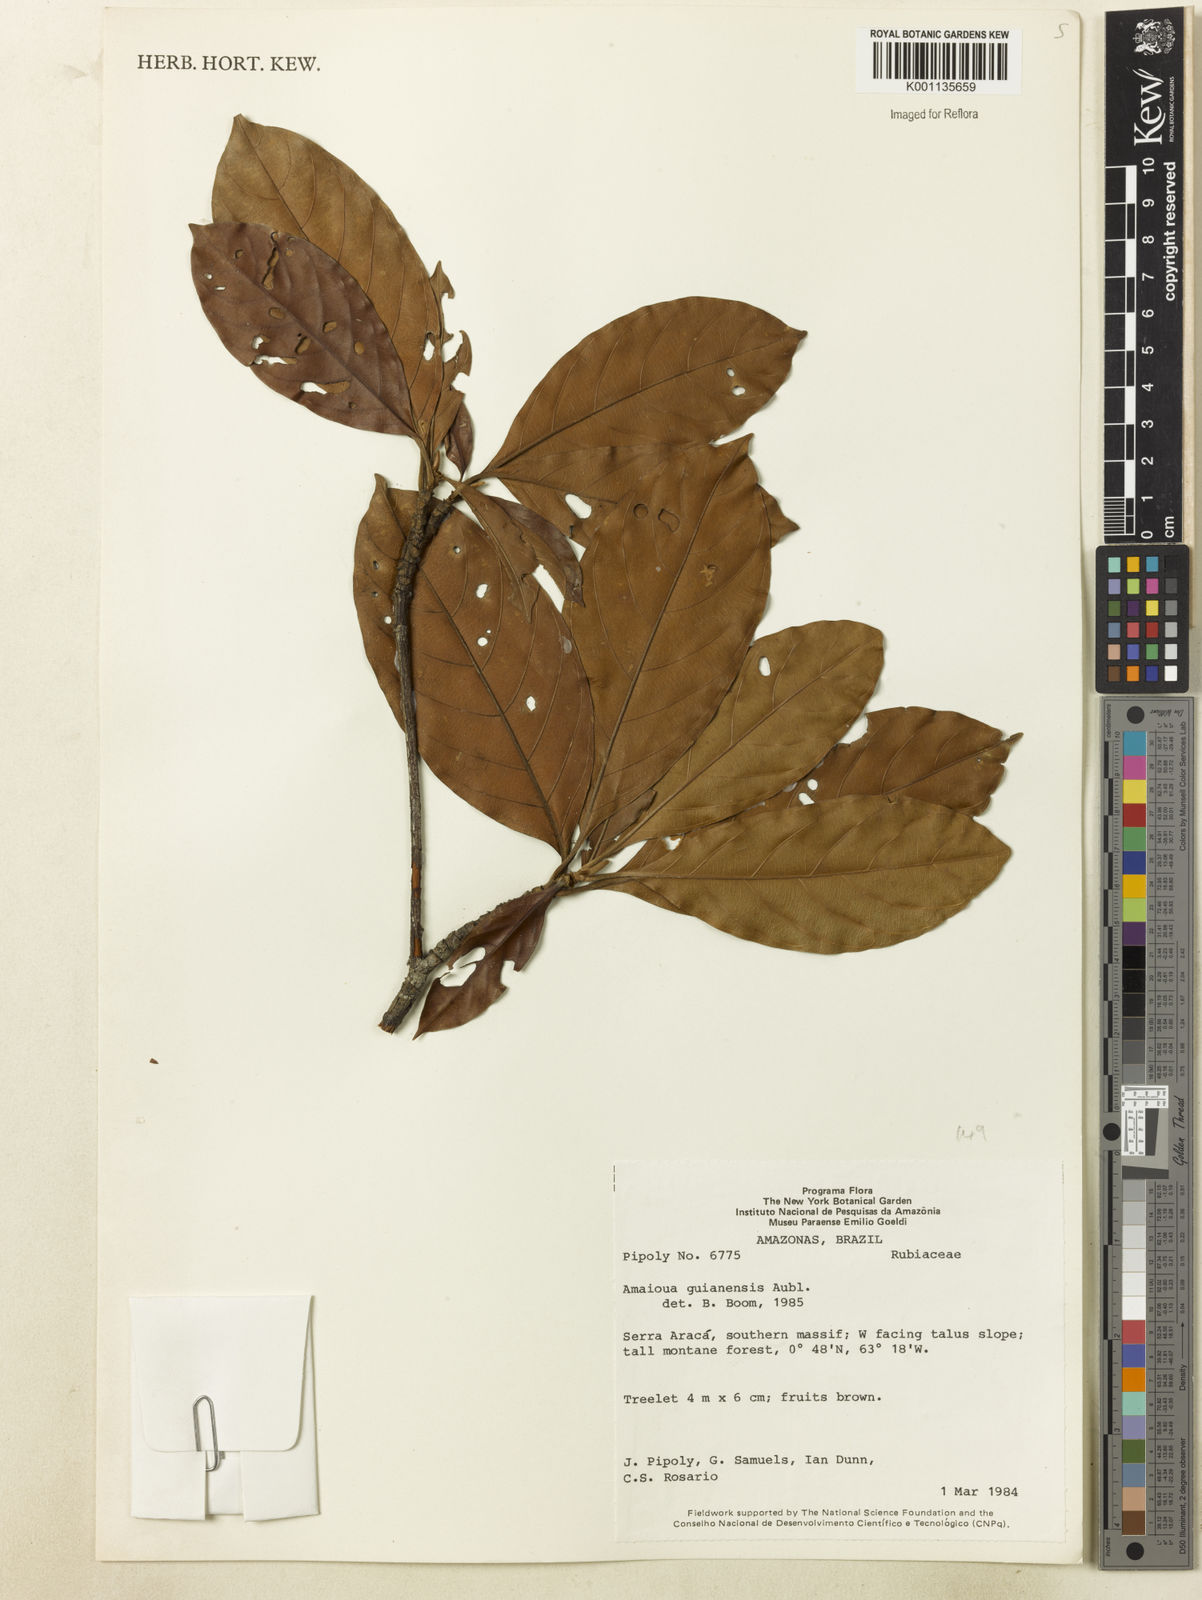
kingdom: Plantae
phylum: Tracheophyta
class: Magnoliopsida
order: Gentianales
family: Rubiaceae
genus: Amaioua
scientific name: Amaioua guianensis
